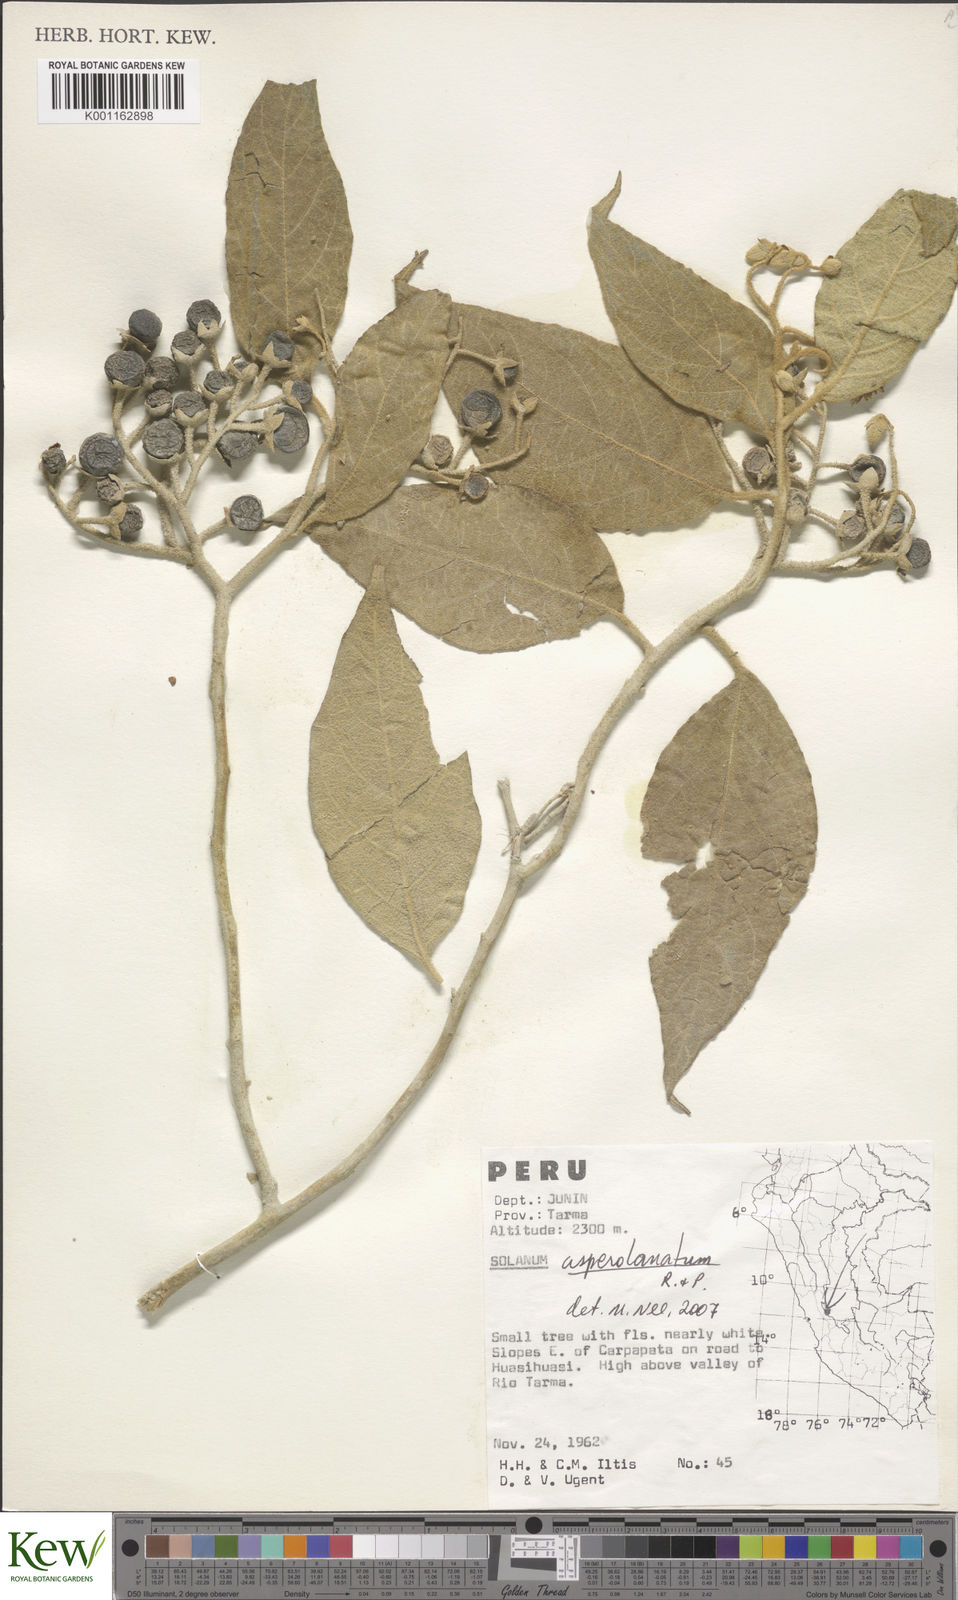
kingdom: Plantae
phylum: Tracheophyta
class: Magnoliopsida
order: Solanales
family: Solanaceae
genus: Solanum
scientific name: Solanum asperolanatum
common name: Devil's-fig
